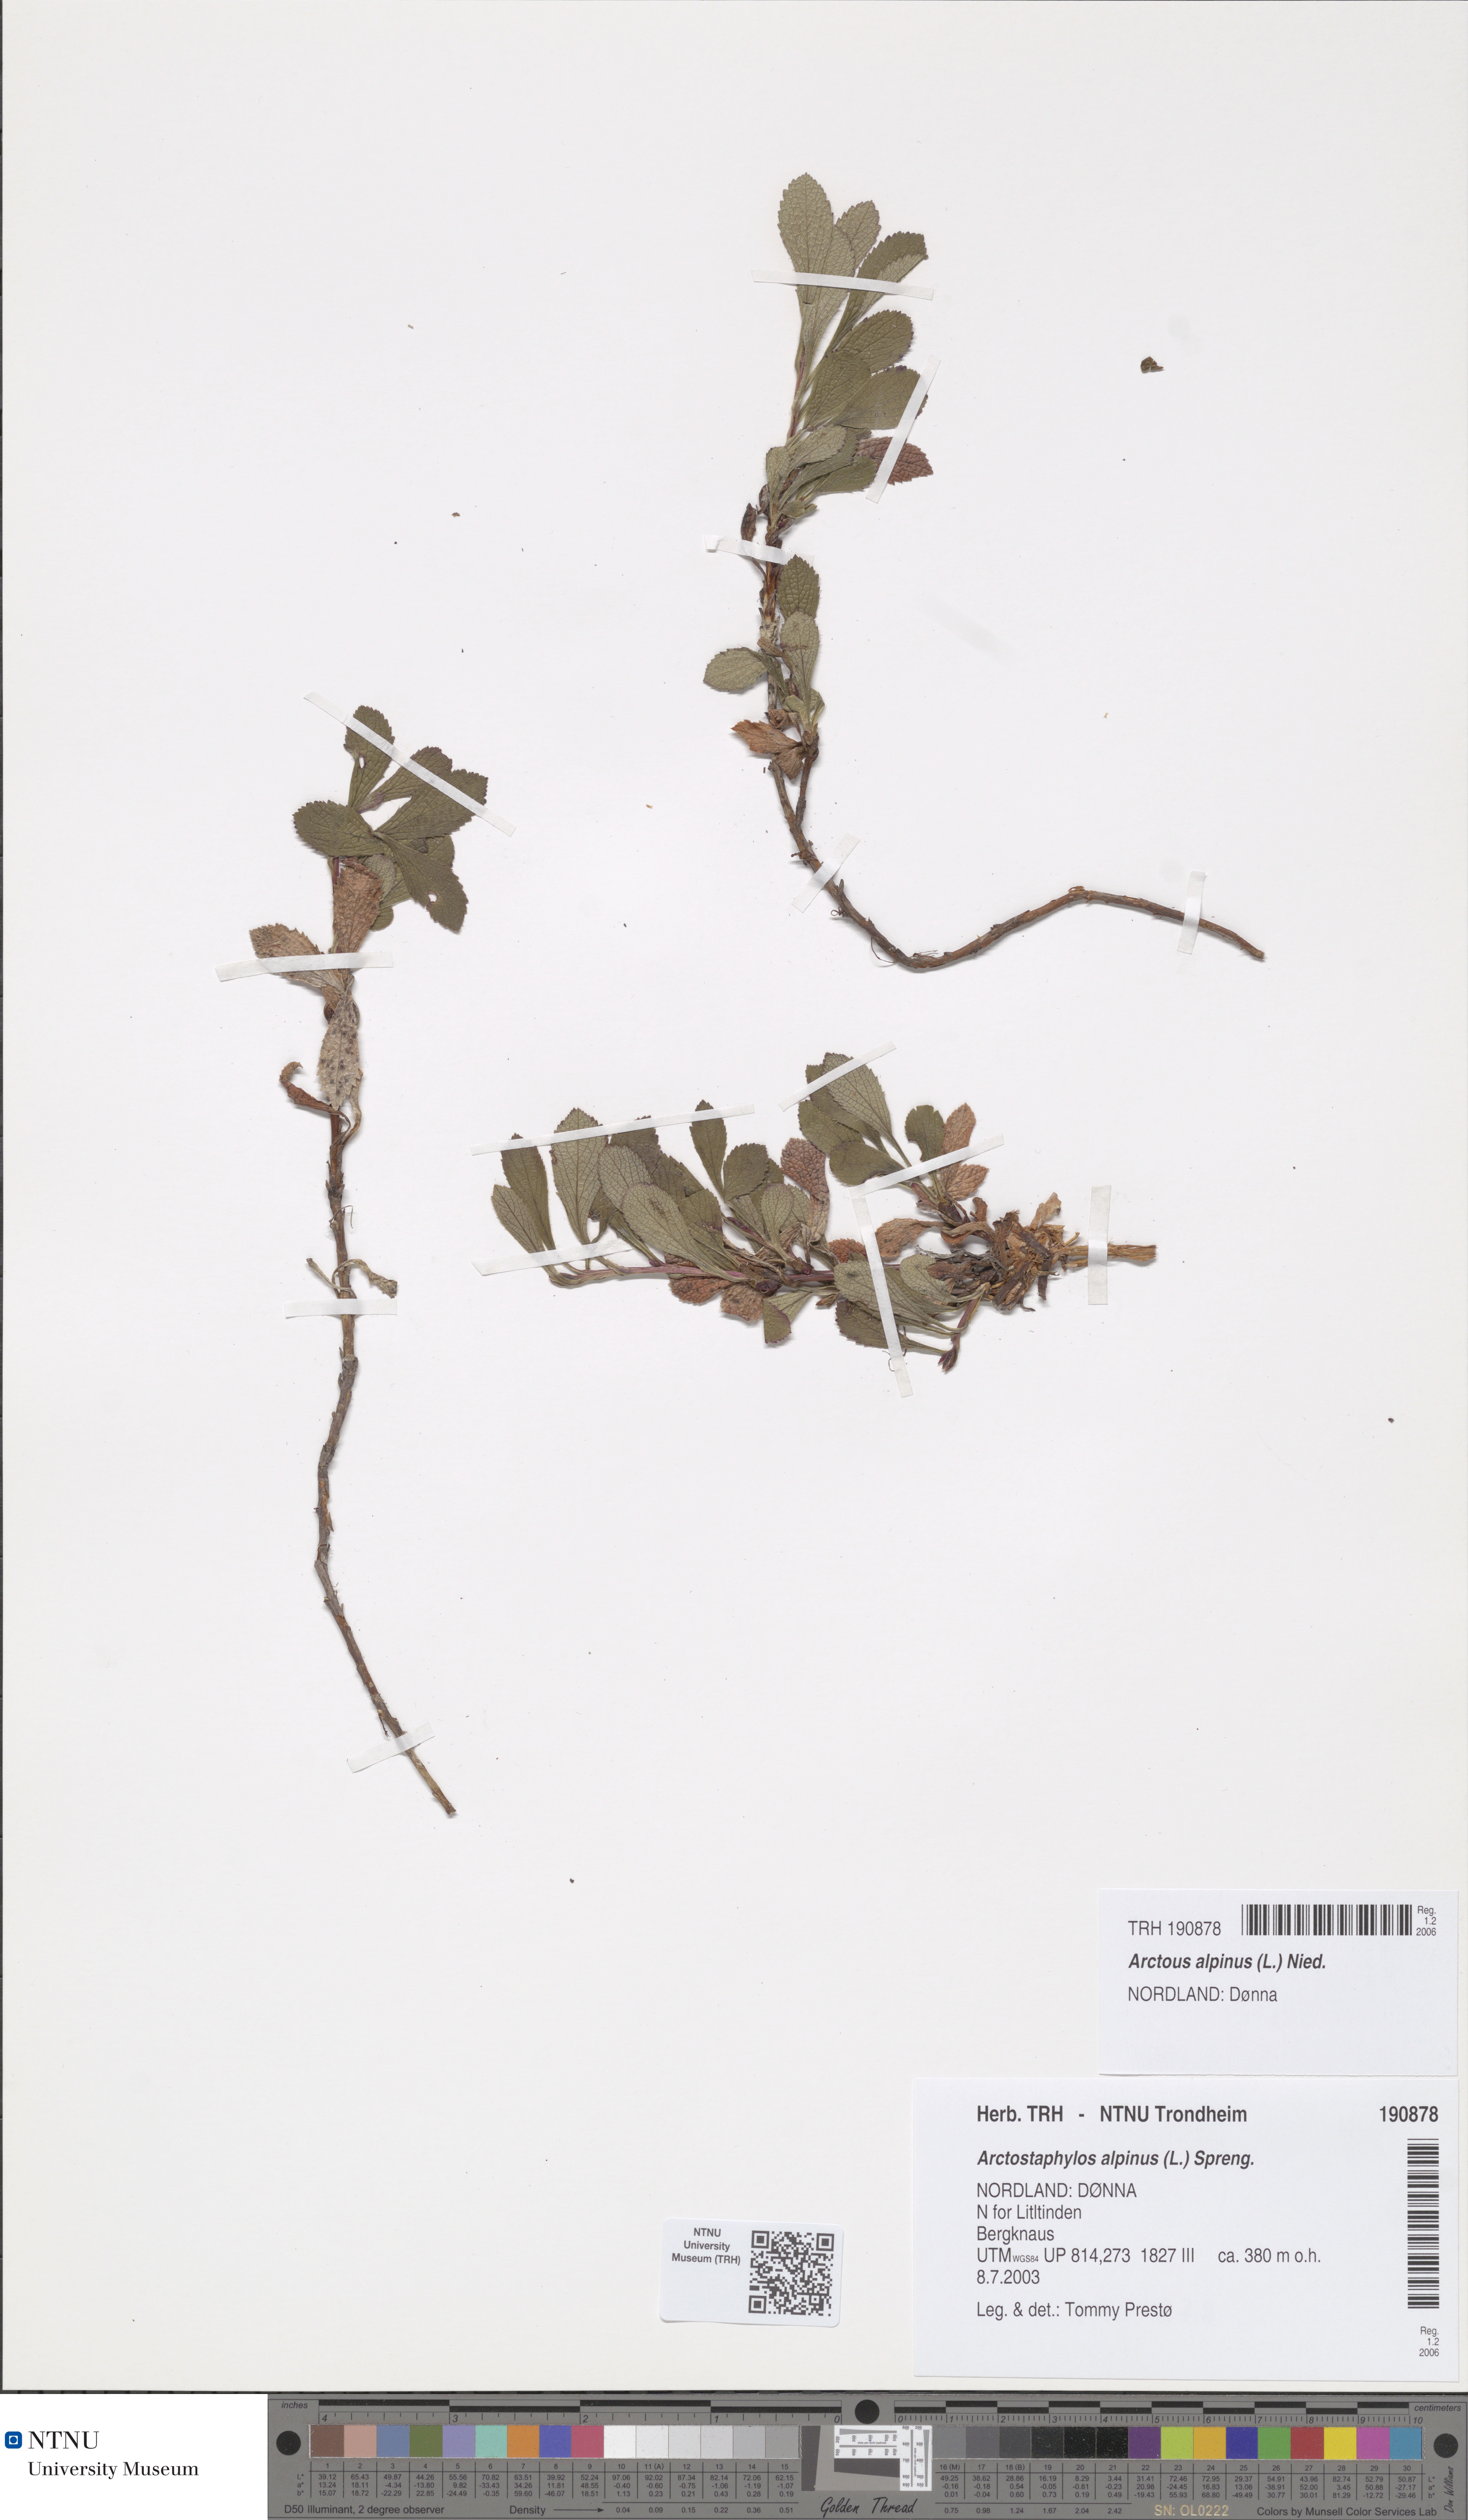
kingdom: Plantae
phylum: Tracheophyta
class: Magnoliopsida
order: Ericales
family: Ericaceae
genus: Arctostaphylos
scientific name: Arctostaphylos alpinus
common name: Alpine bearberry
